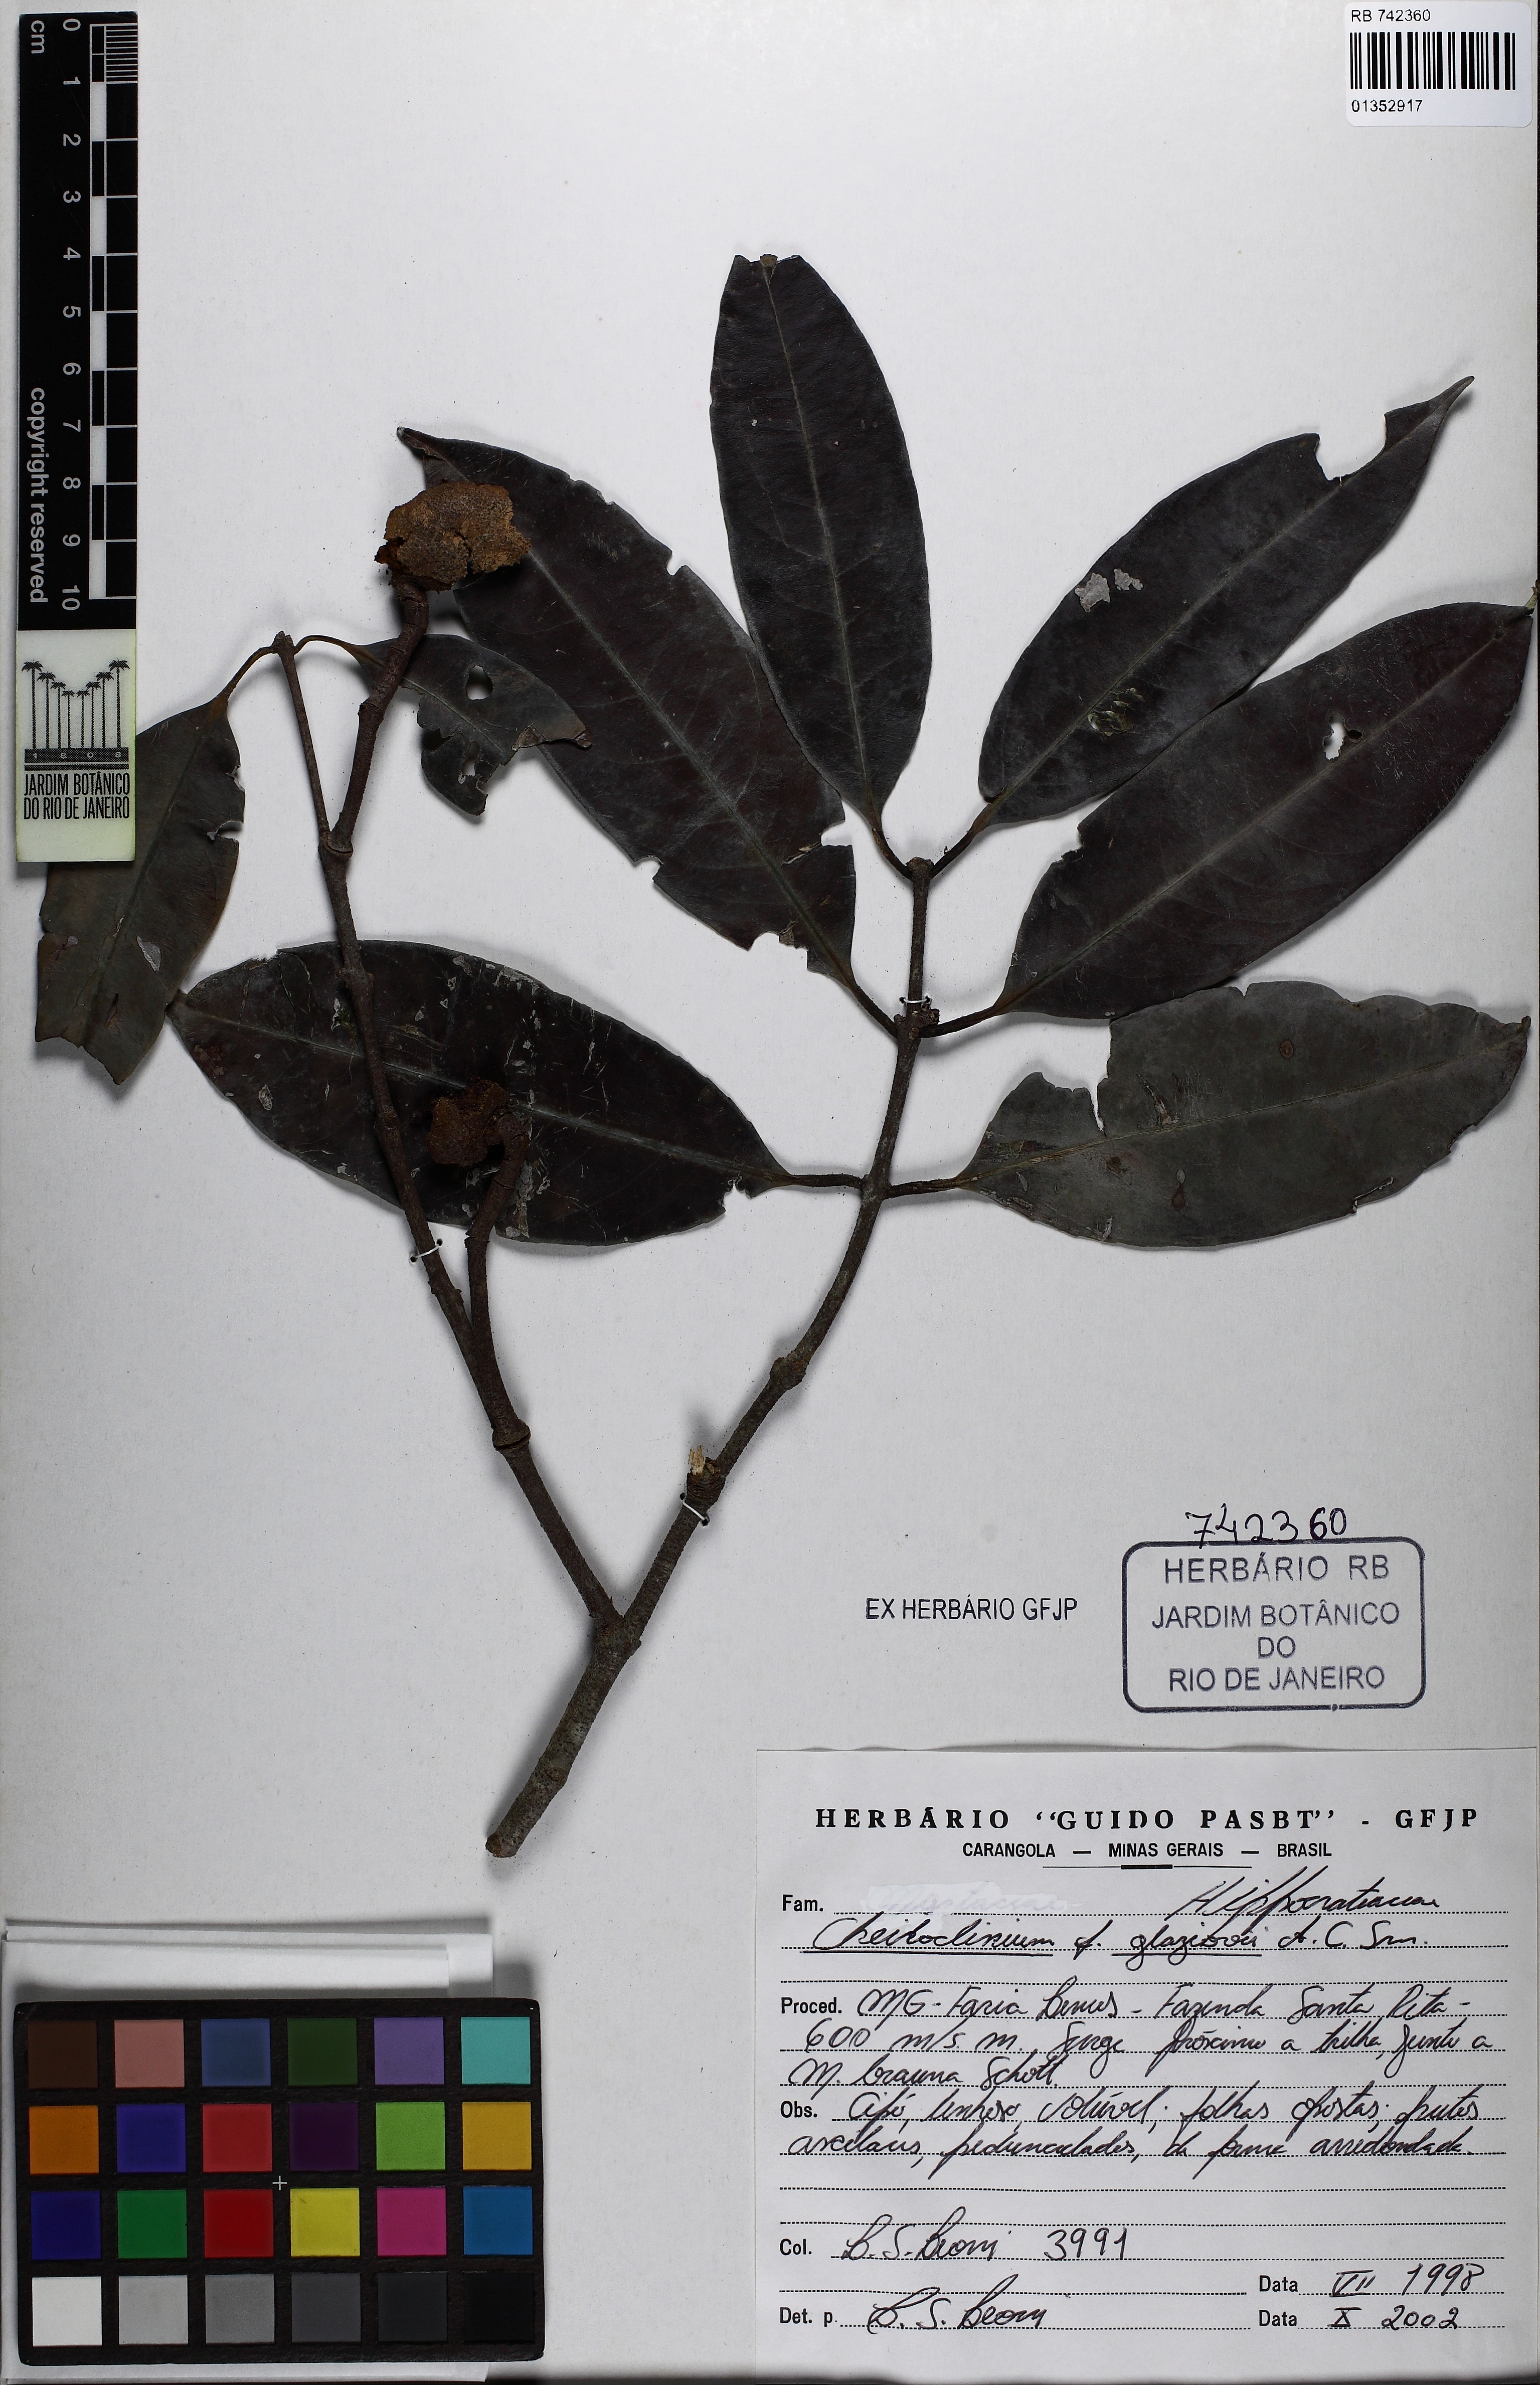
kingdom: Plantae
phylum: Tracheophyta
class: Magnoliopsida
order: Celastrales
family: Celastraceae
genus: Cheiloclinium
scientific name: Cheiloclinium anomalum
